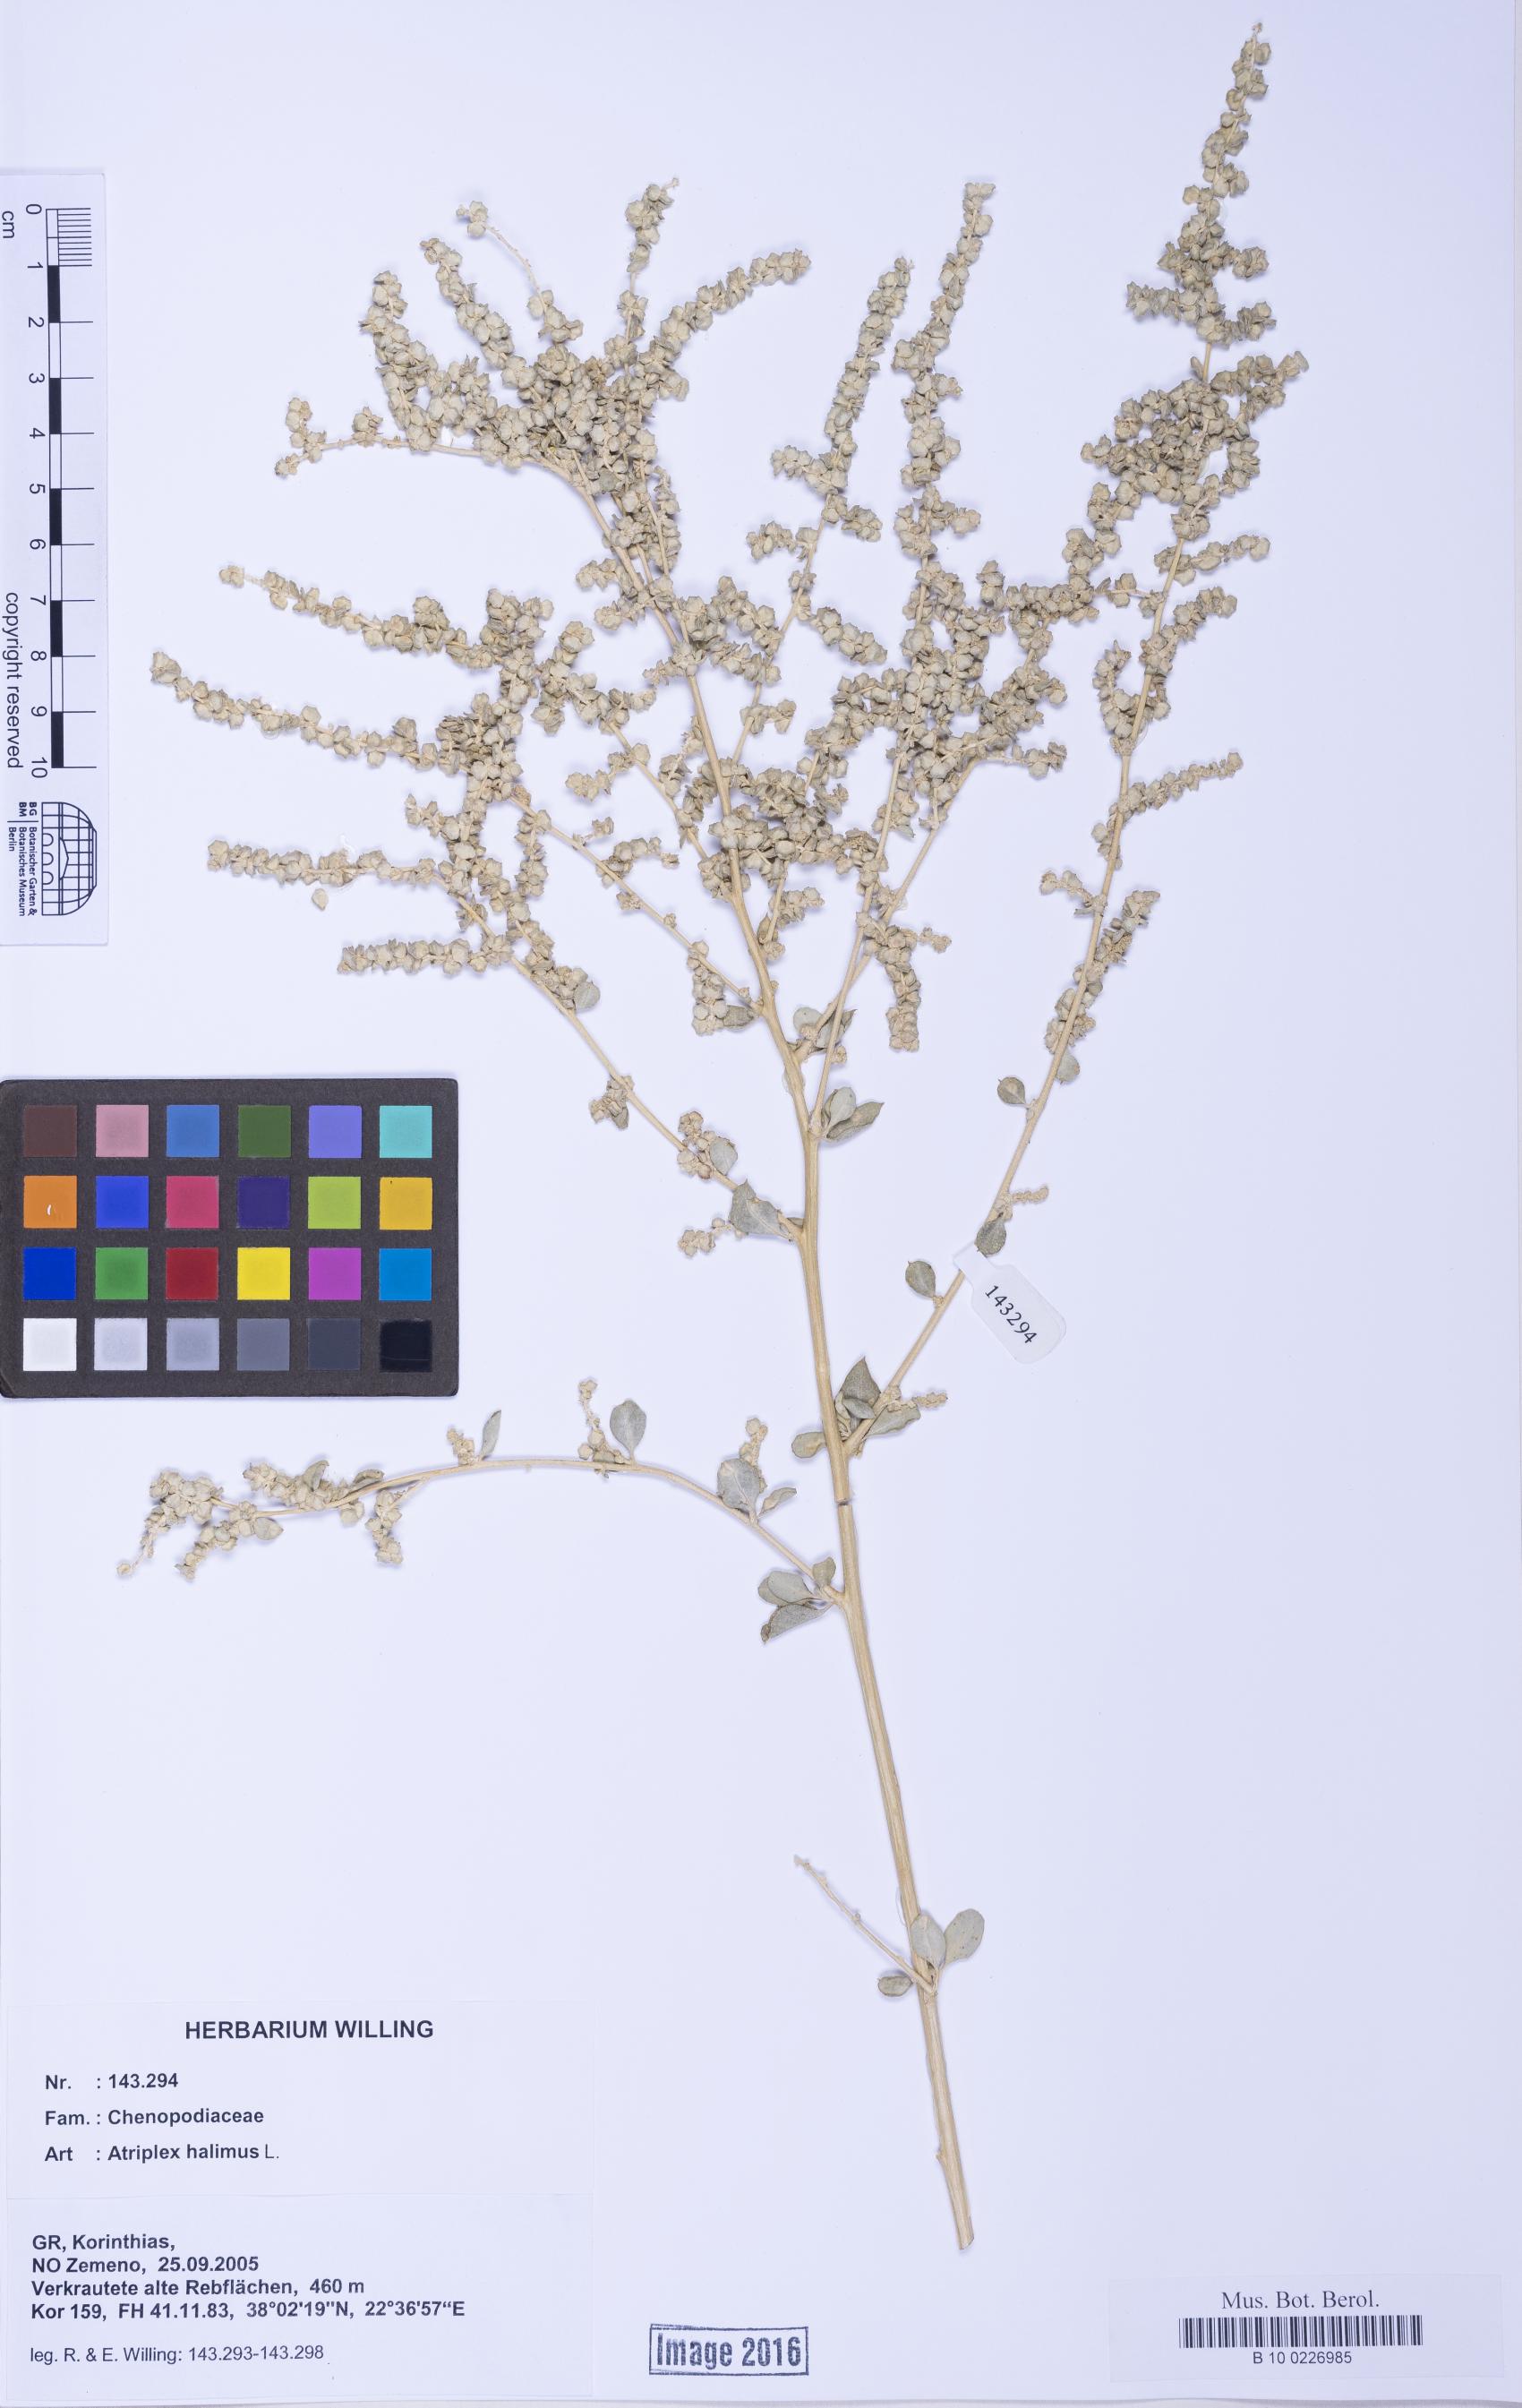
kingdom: Plantae
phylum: Tracheophyta
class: Liliopsida
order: Poales
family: Poaceae
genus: Agrostis
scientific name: Agrostis gigantea
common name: Black bent
